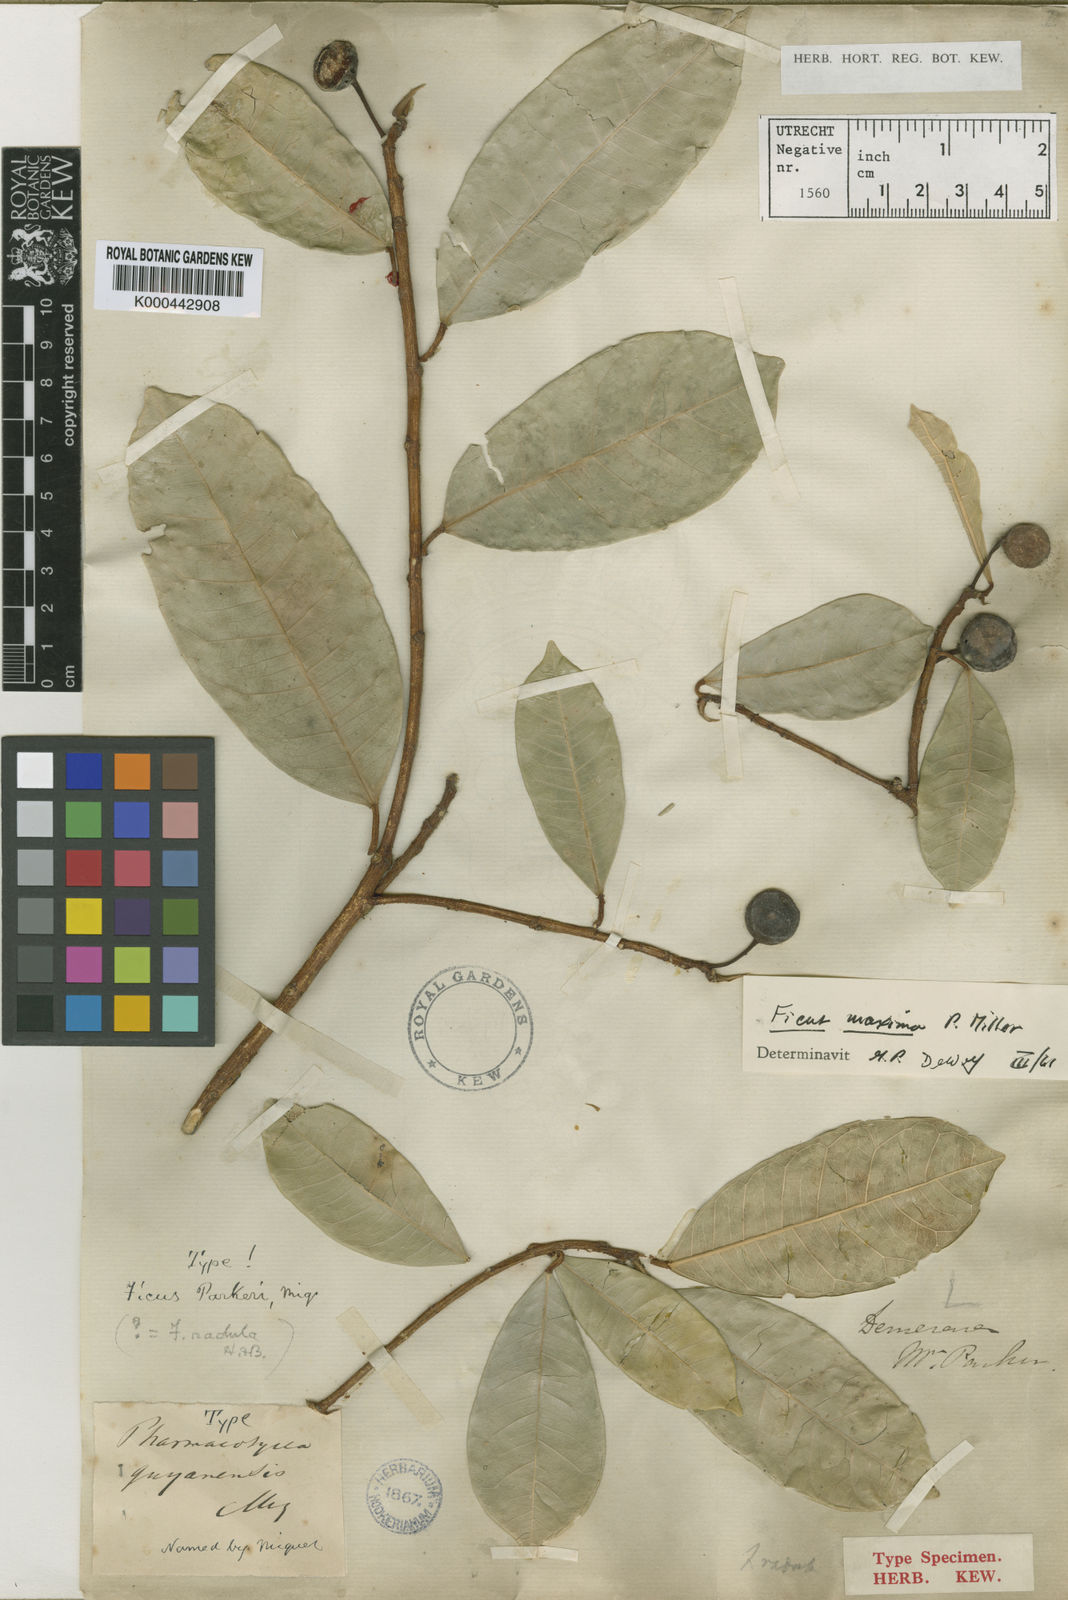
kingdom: Plantae
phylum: Tracheophyta
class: Magnoliopsida
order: Rosales
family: Moraceae
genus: Ficus
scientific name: Ficus maxima
